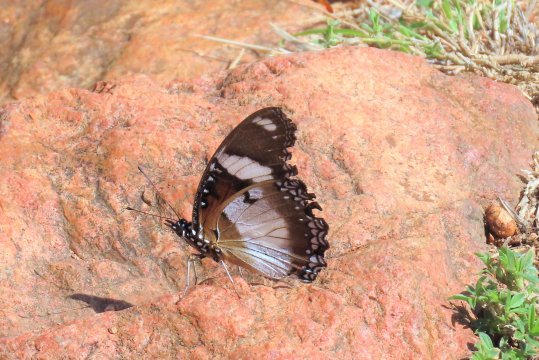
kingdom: Animalia
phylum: Arthropoda
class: Insecta
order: Lepidoptera
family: Nymphalidae
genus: Hypolimnas
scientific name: Hypolimnas misippus
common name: Mimic
